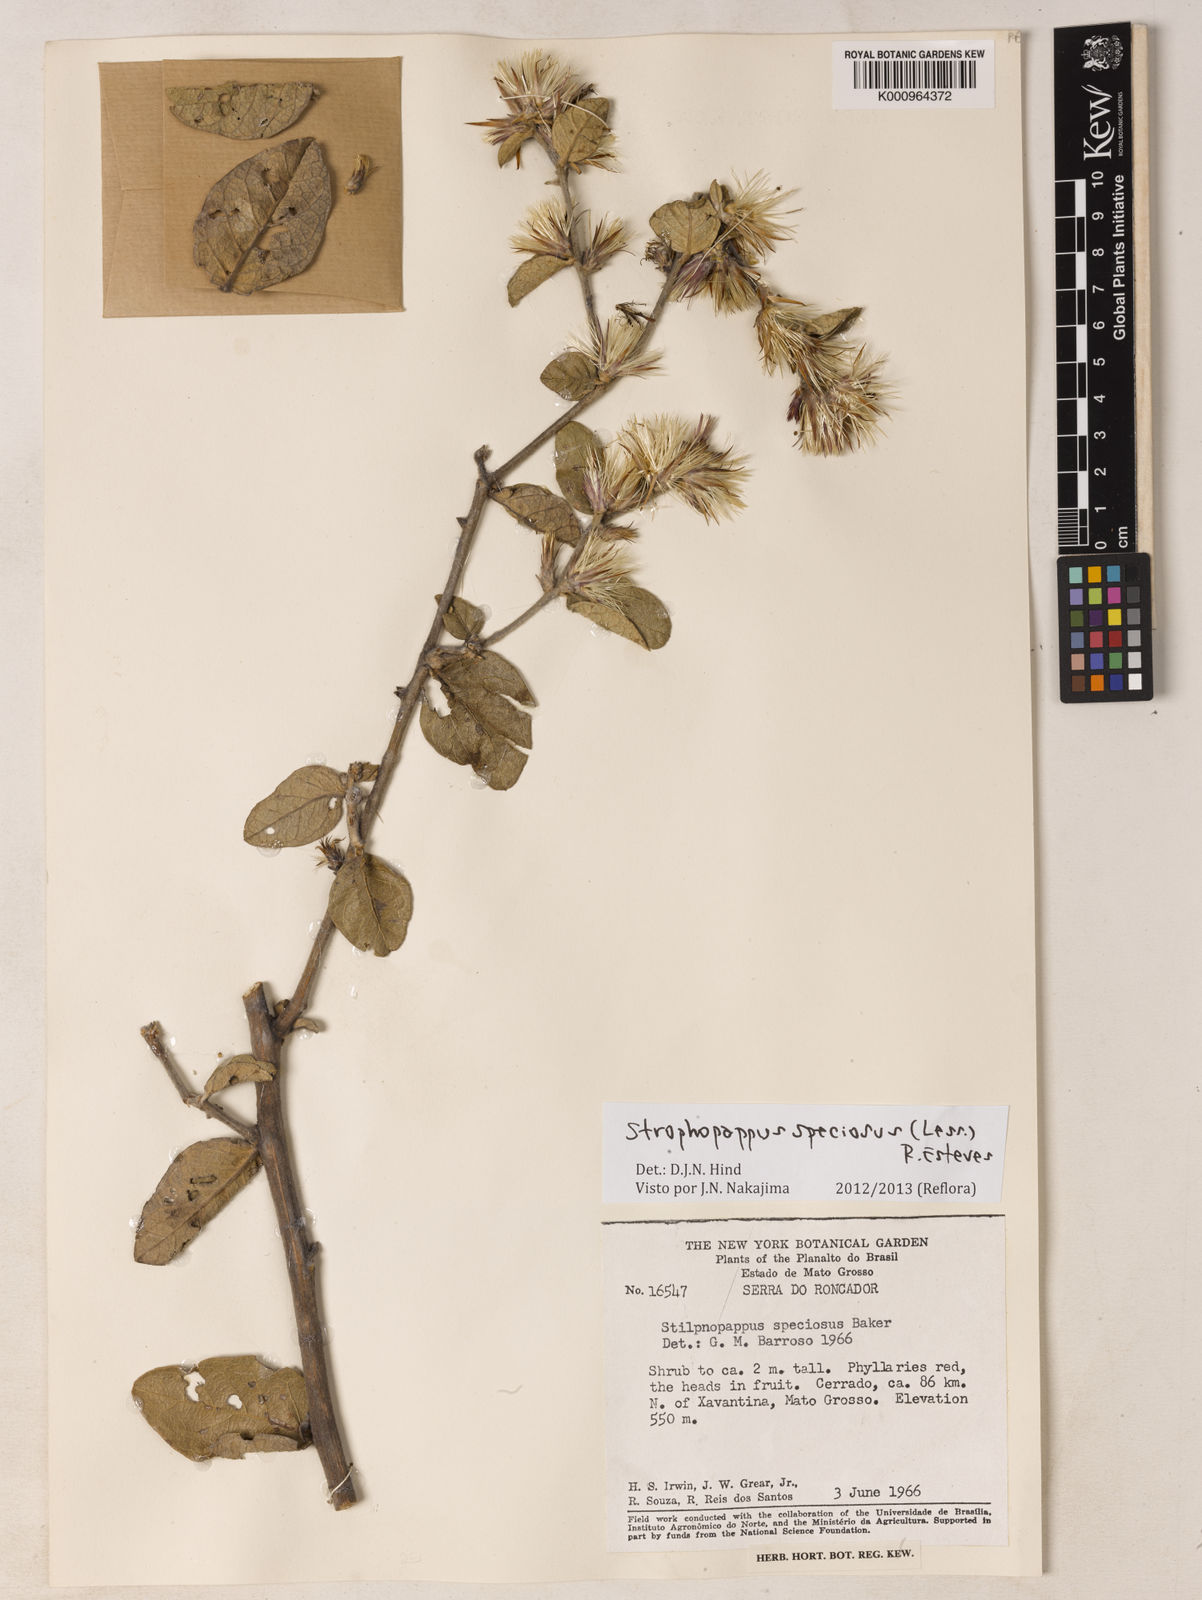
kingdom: Plantae
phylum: Tracheophyta
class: Magnoliopsida
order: Asterales
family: Asteraceae
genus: Stilpnopappus
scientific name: Stilpnopappus speciosus
